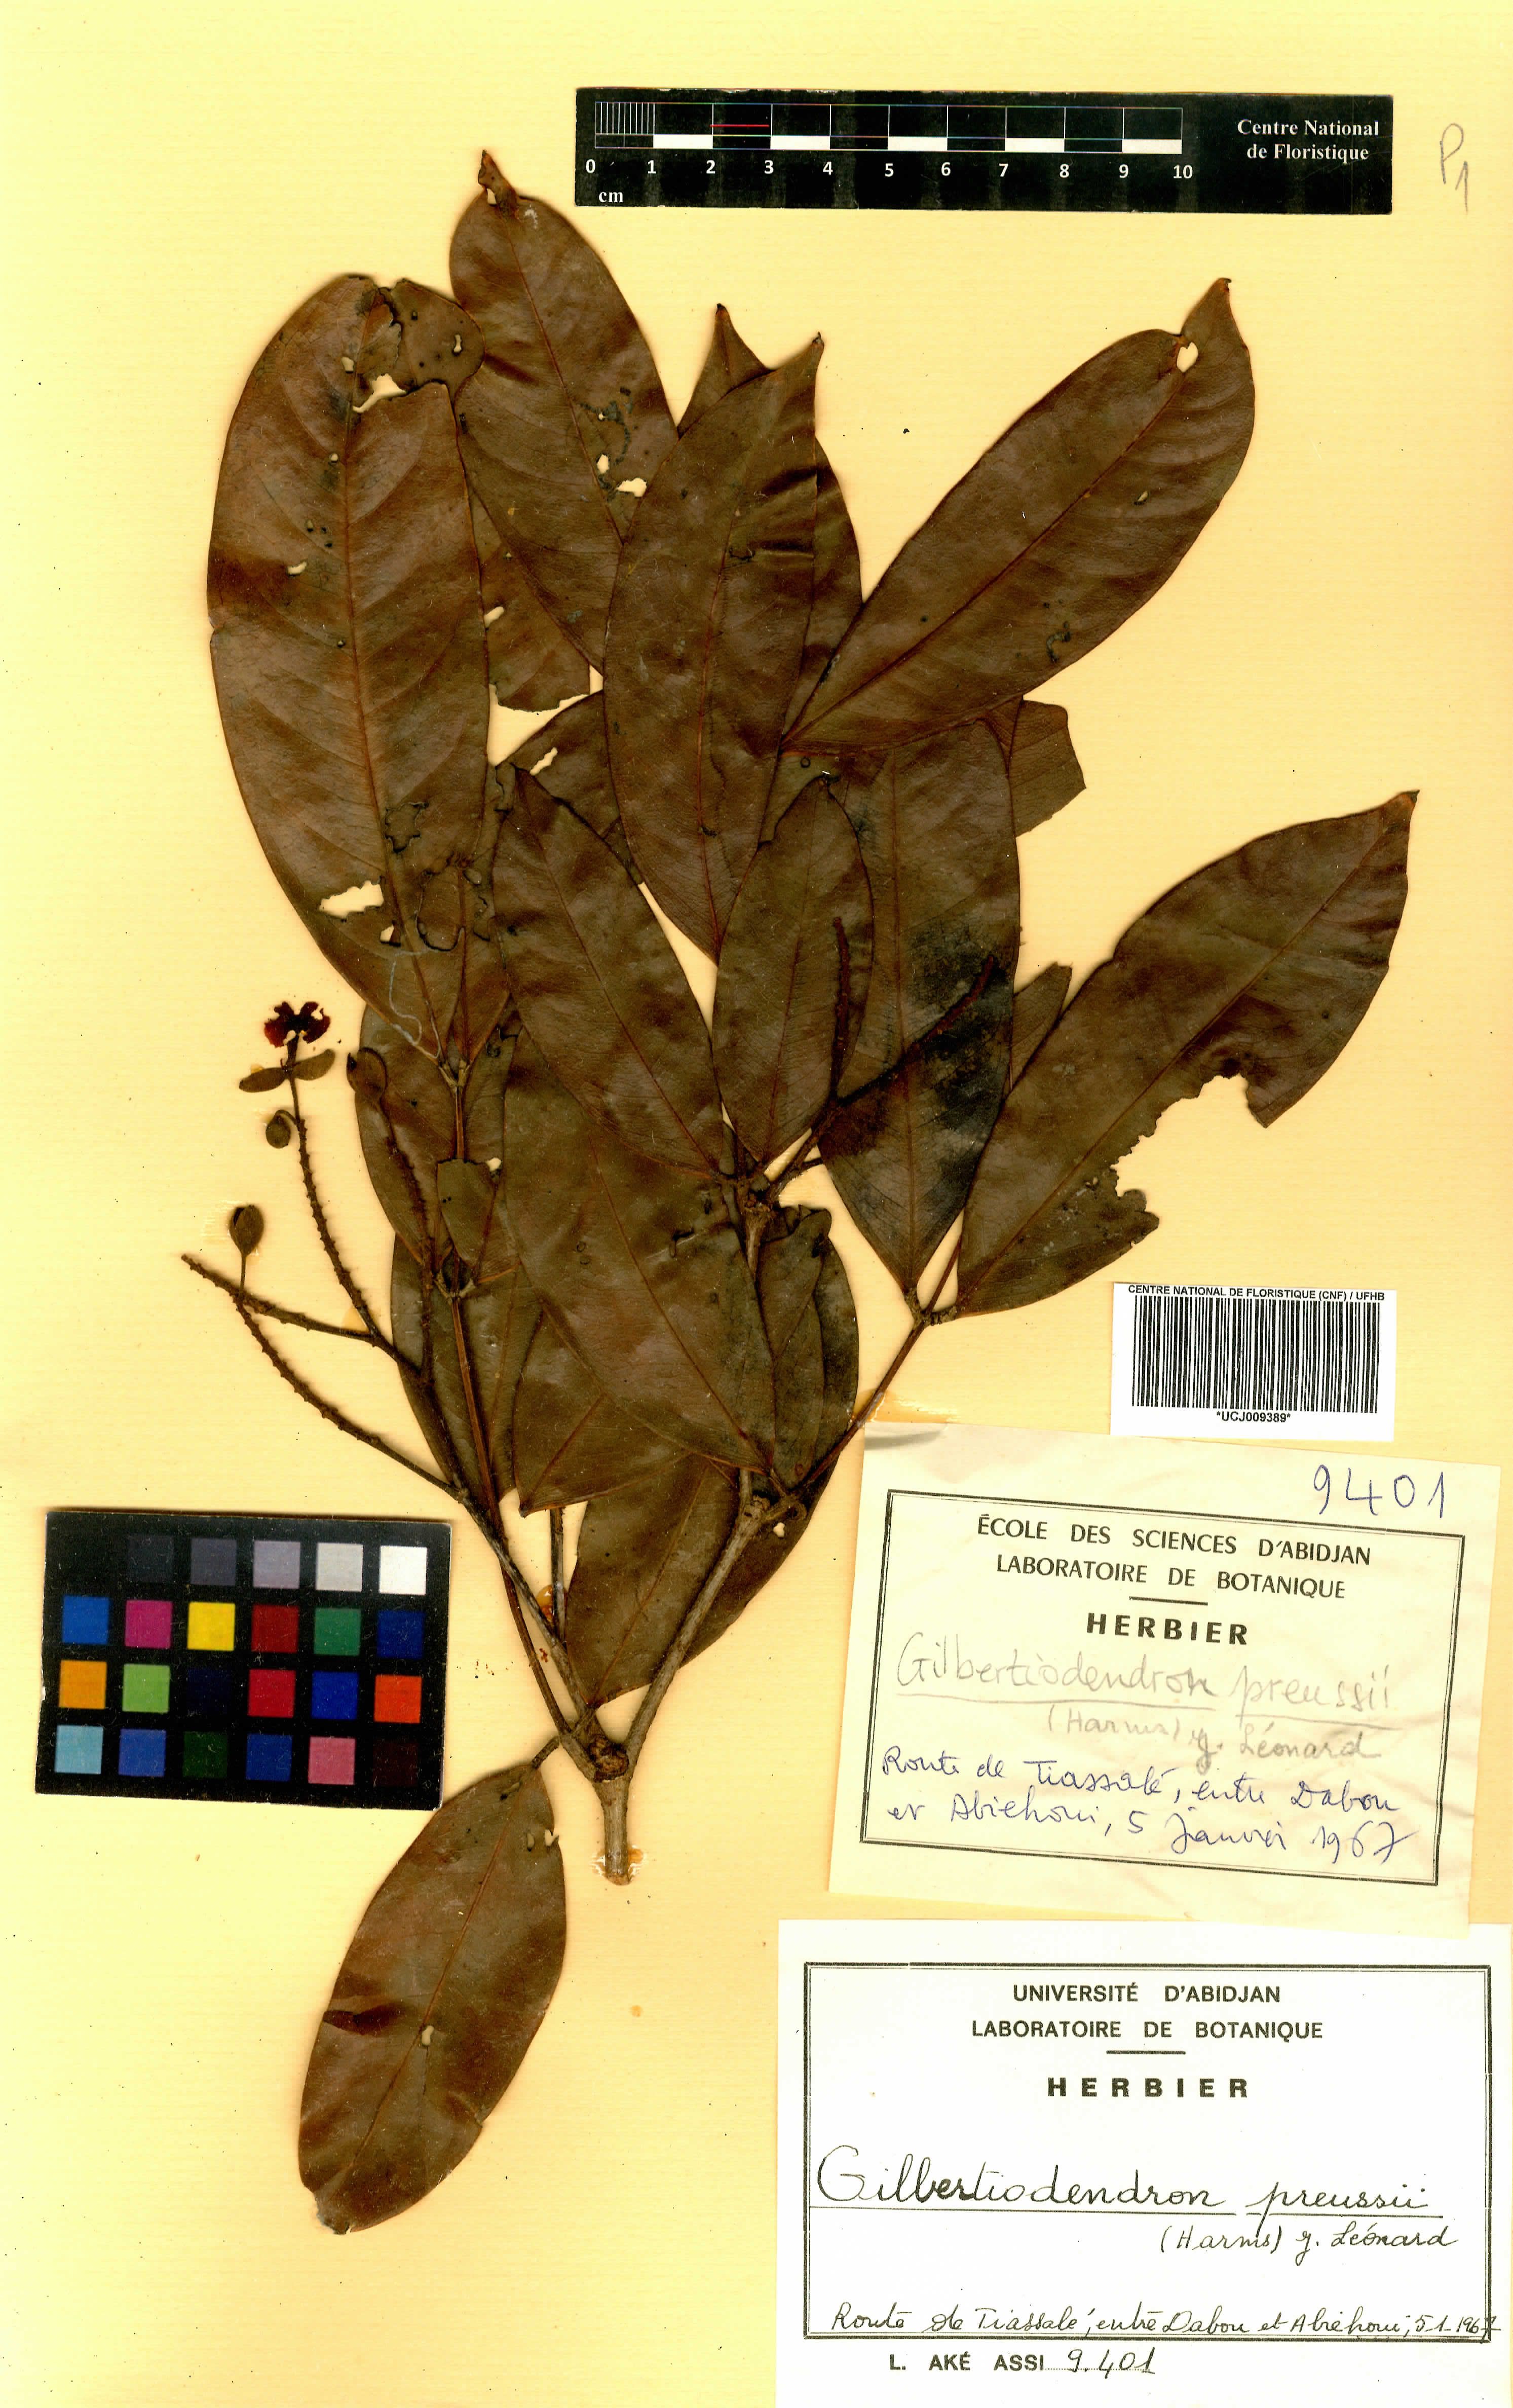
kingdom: Plantae
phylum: Tracheophyta
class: Magnoliopsida
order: Fabales
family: Fabaceae
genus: Gilbertiodendron
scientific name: Gilbertiodendron preussii
